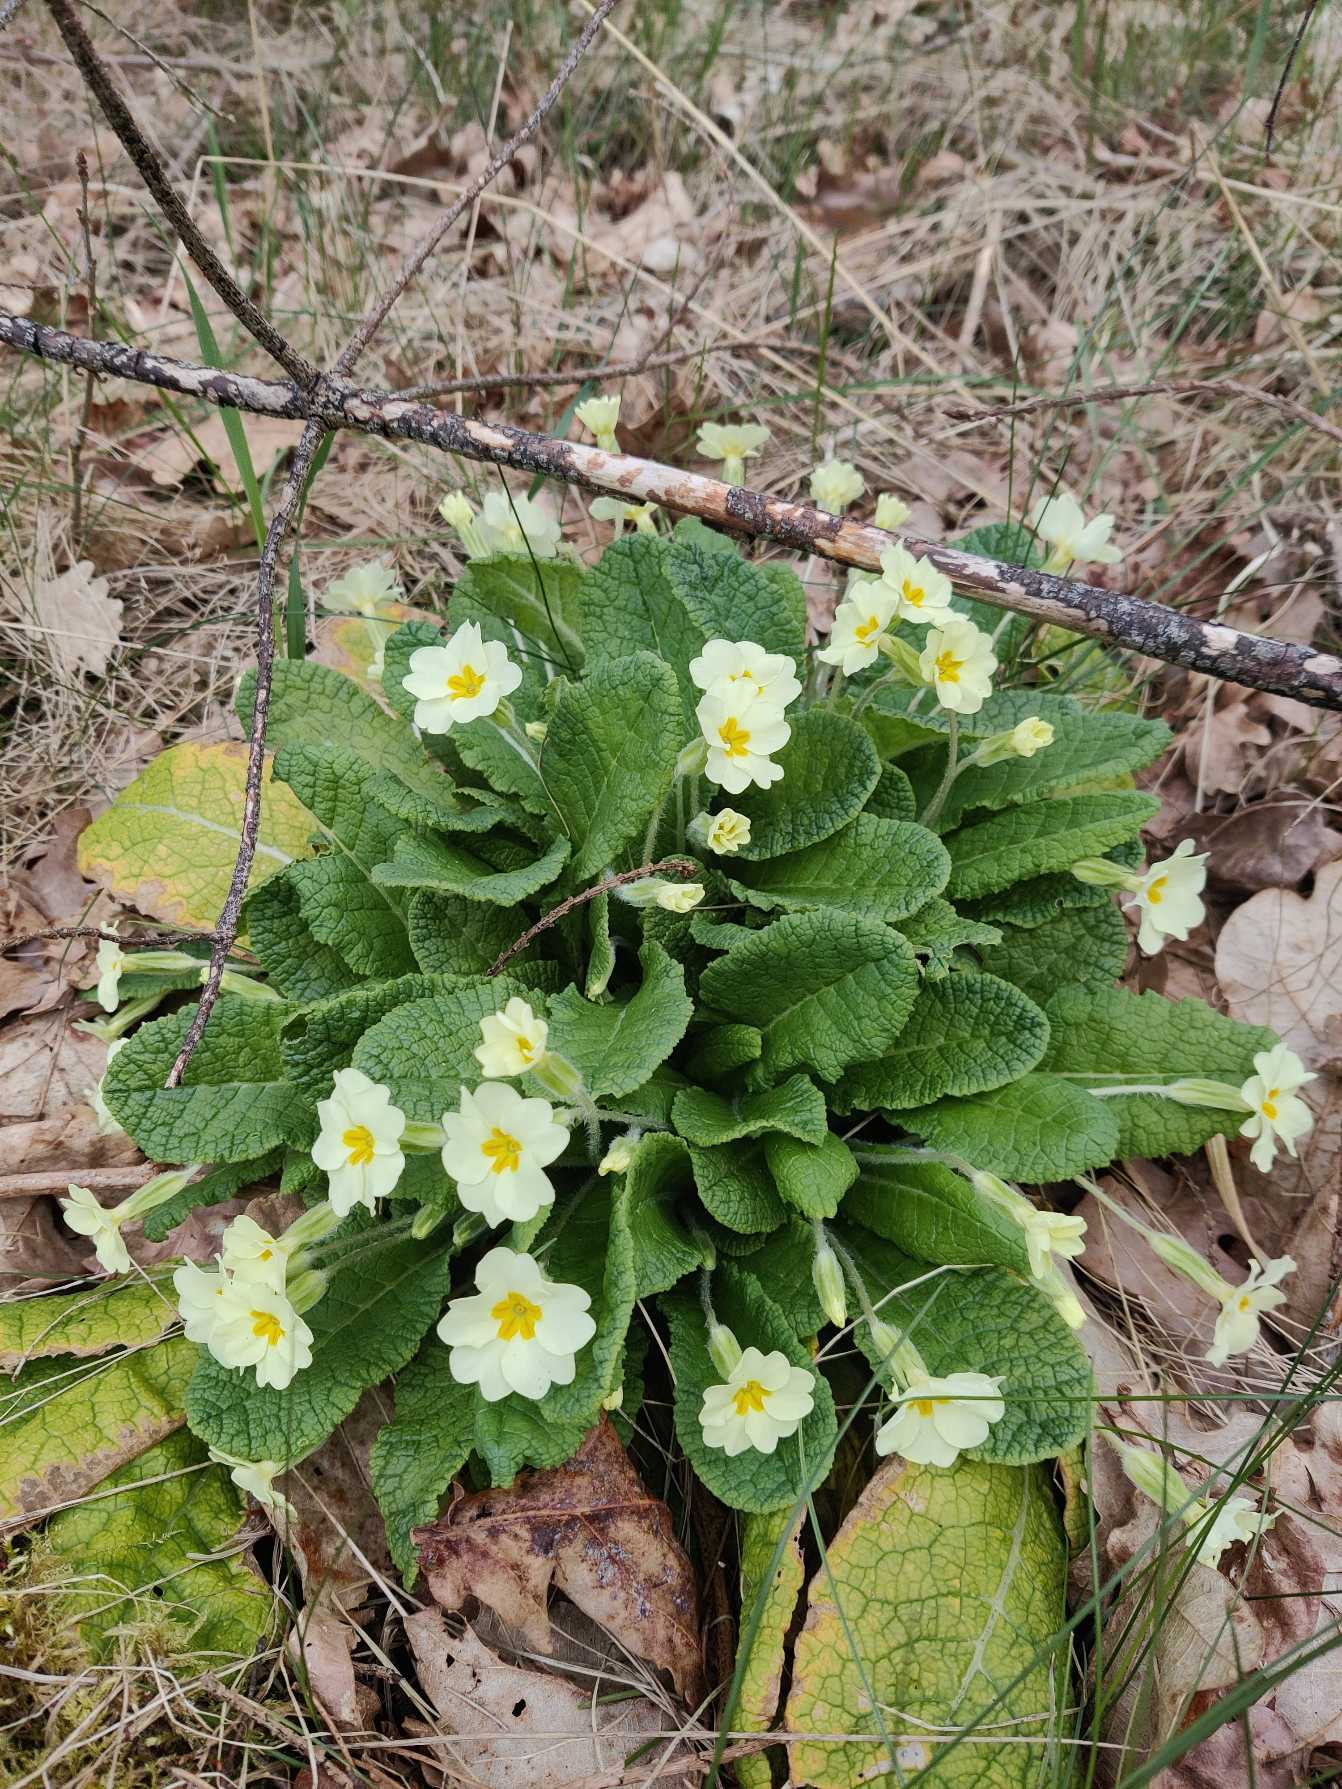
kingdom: Plantae
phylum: Tracheophyta
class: Magnoliopsida
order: Ericales
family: Primulaceae
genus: Primula
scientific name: Primula vulgaris
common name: Storblomstret kodriver
